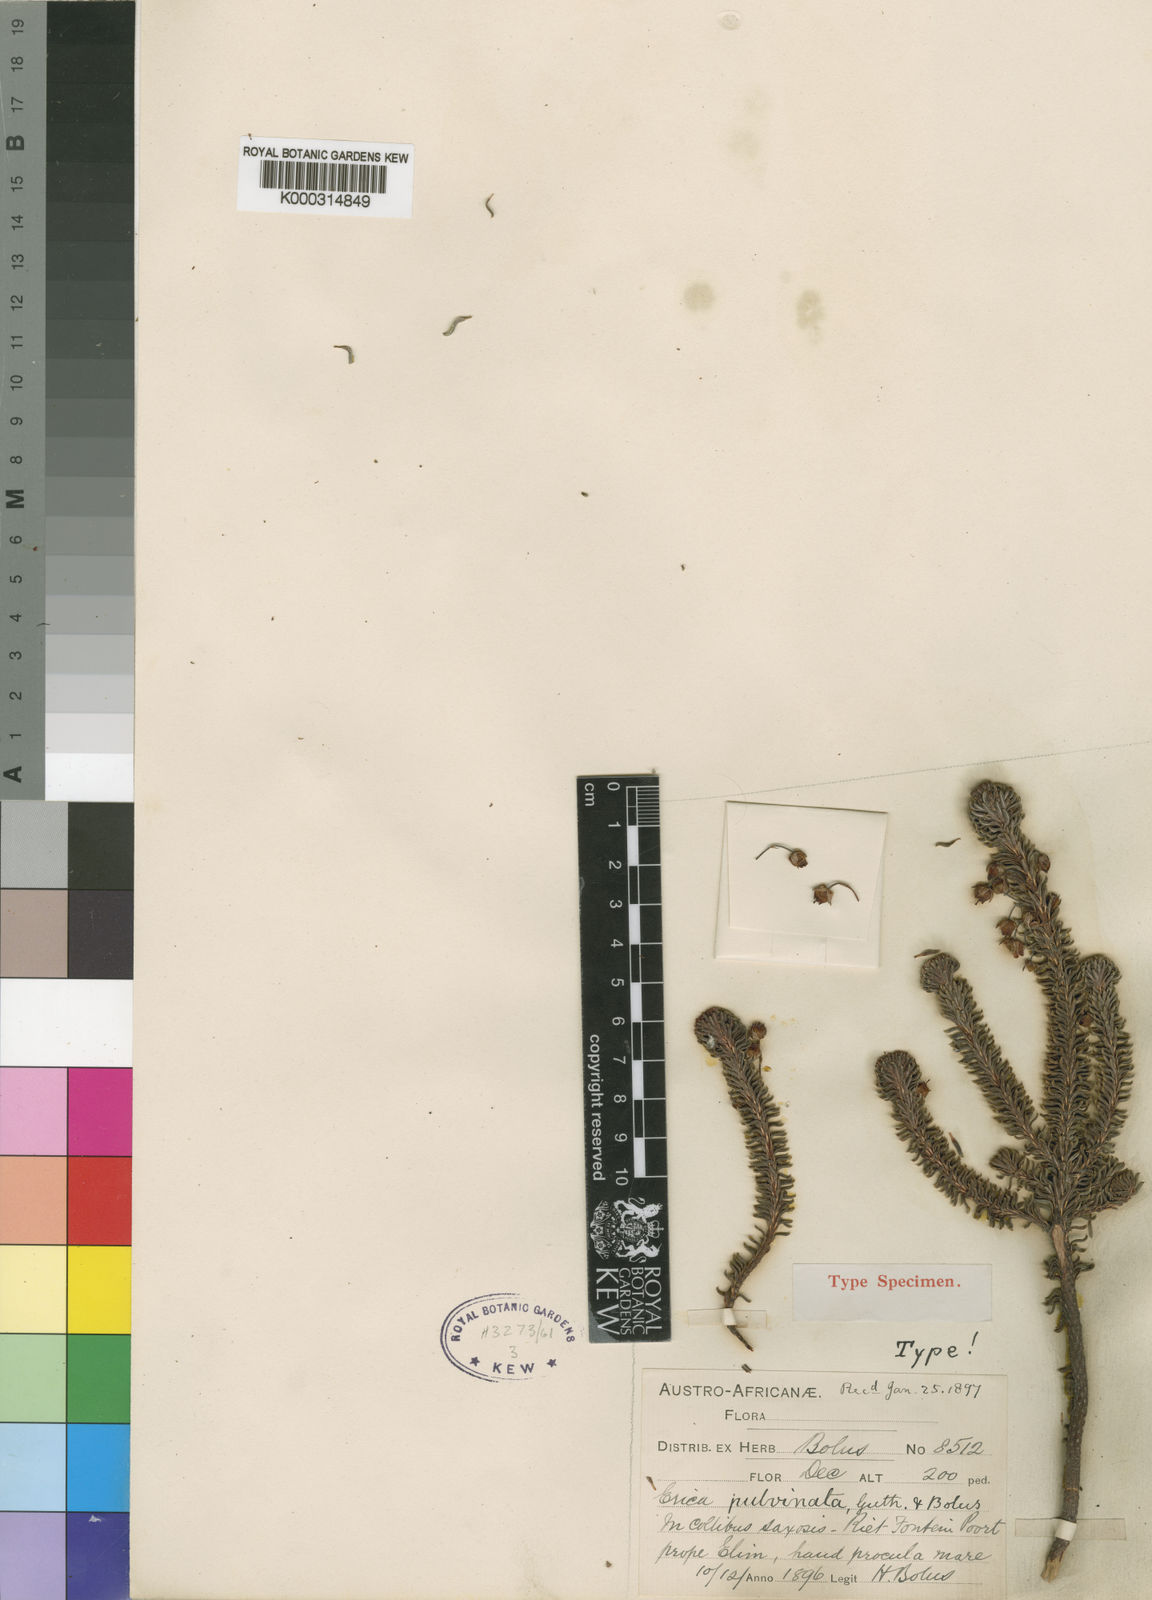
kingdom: Plantae
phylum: Tracheophyta
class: Magnoliopsida
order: Ericales
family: Ericaceae
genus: Erica
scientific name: Erica pulvinata
